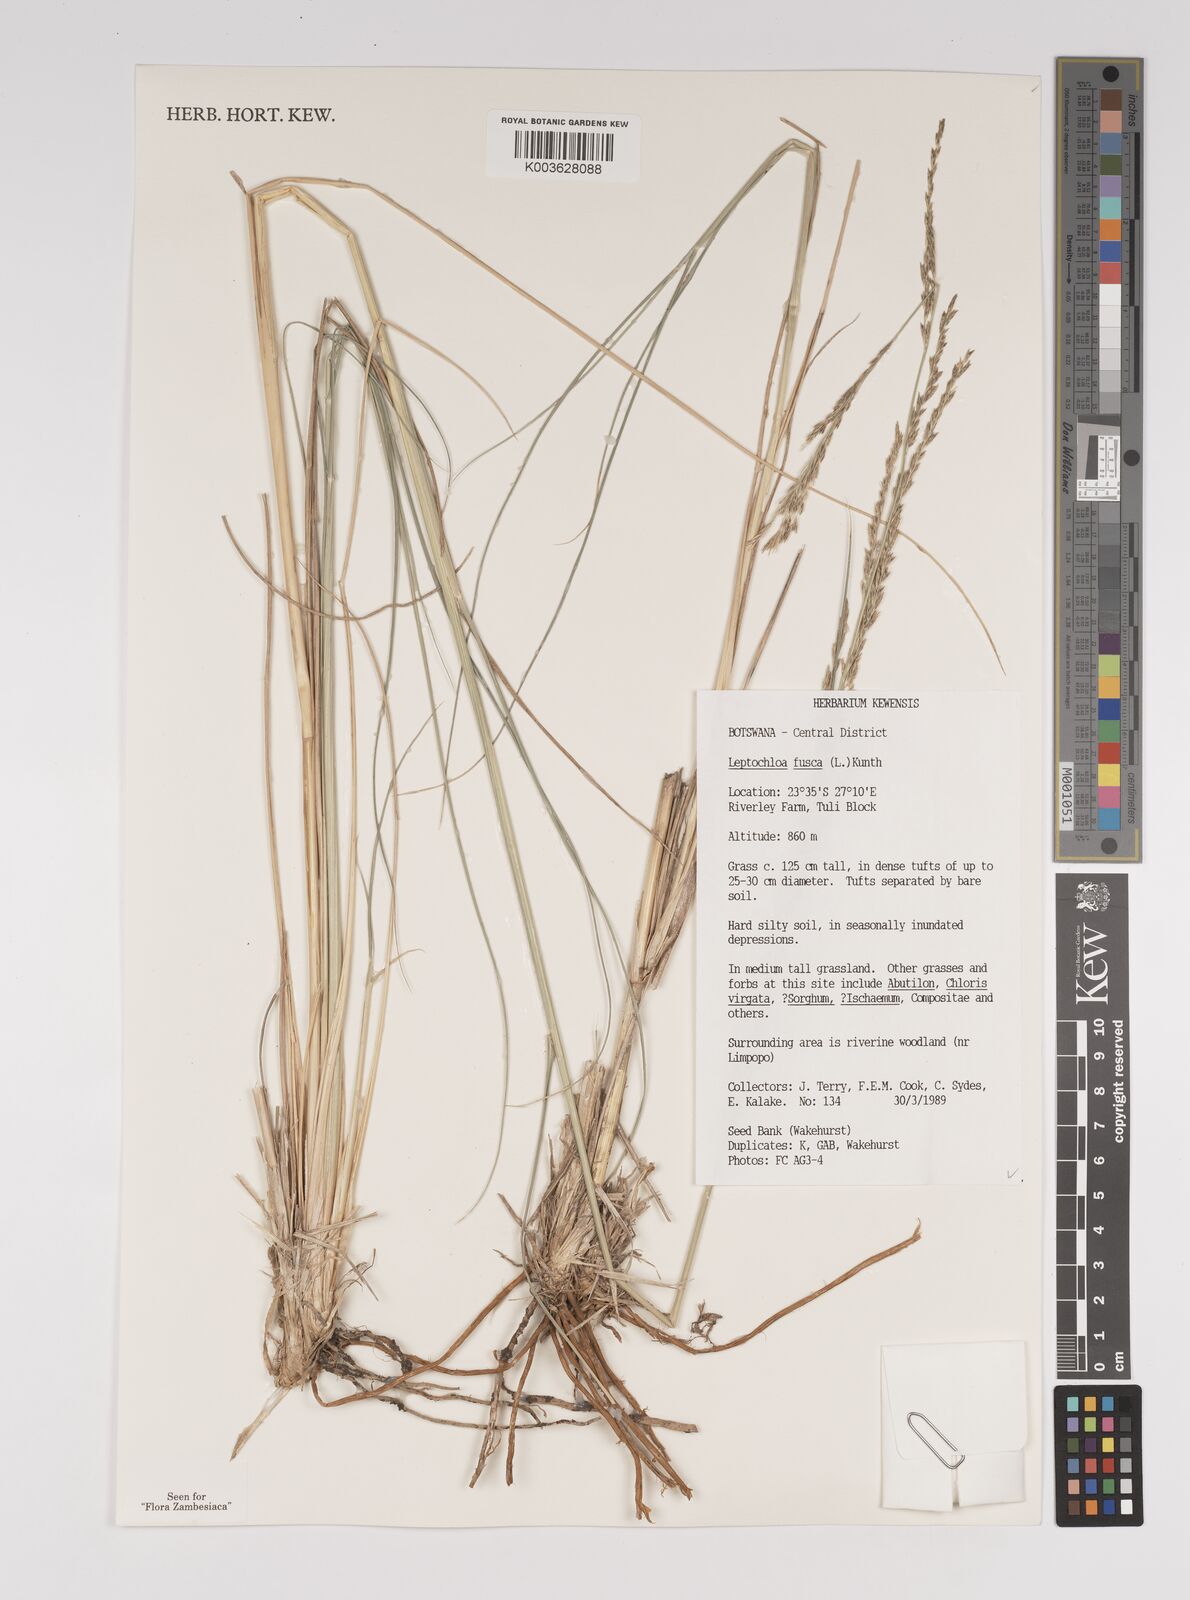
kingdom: Plantae
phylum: Tracheophyta
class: Liliopsida
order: Poales
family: Poaceae
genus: Diplachne
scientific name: Diplachne fusca
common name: Brown beetle grass
